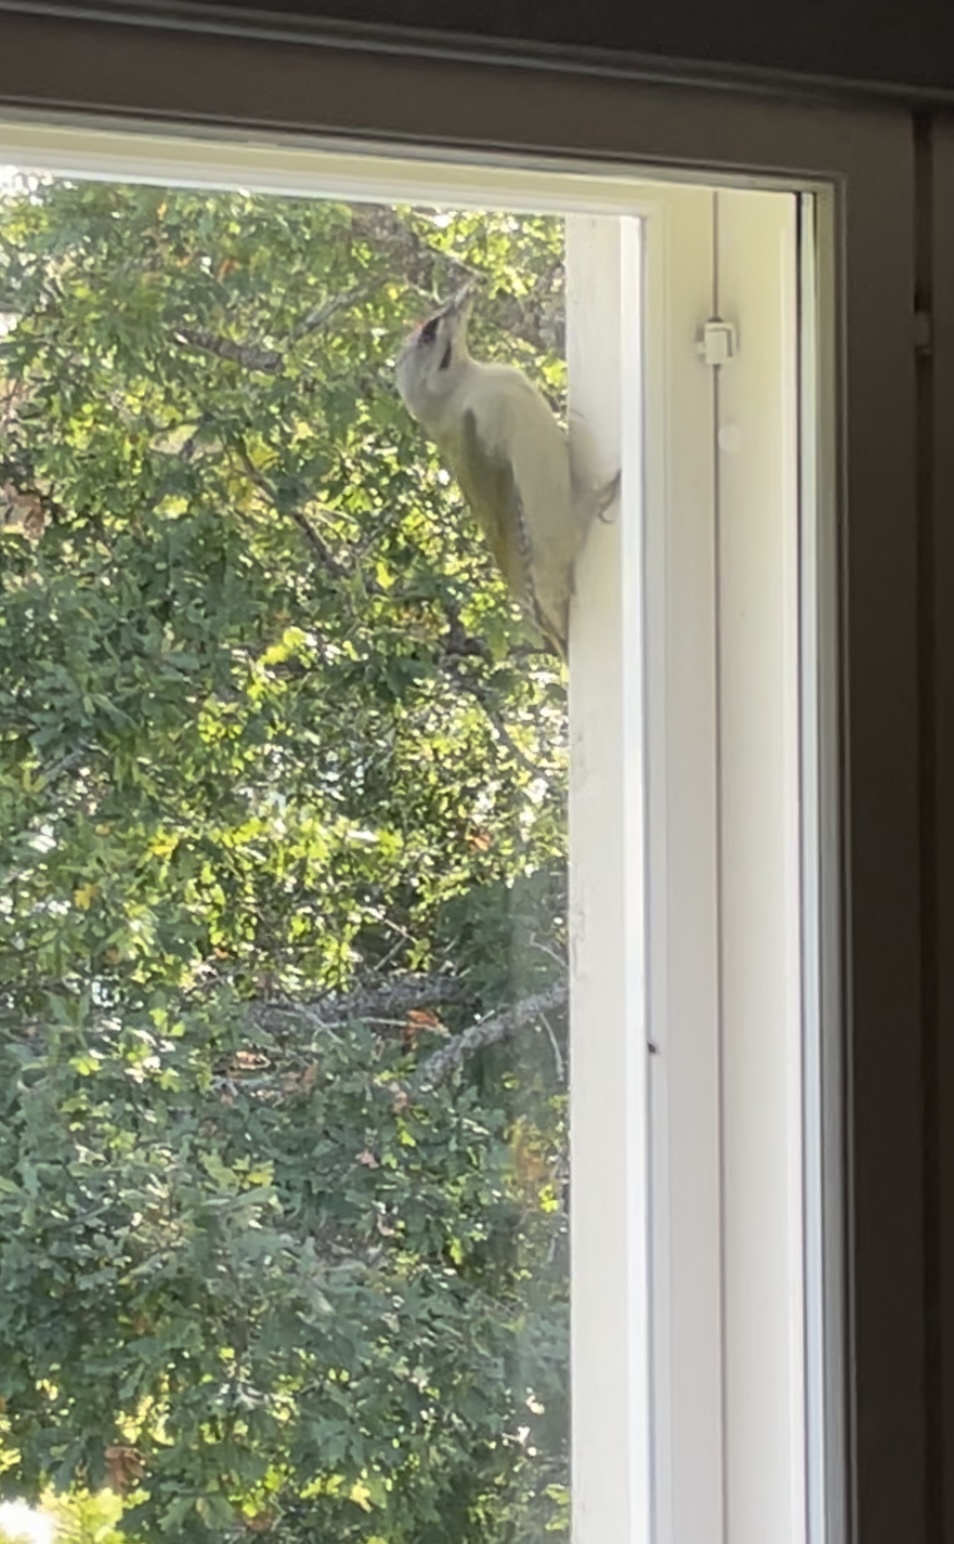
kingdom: Animalia
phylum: Chordata
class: Aves
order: Piciformes
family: Picidae
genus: Picus
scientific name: Picus canus
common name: Grey-headed woodpecker
